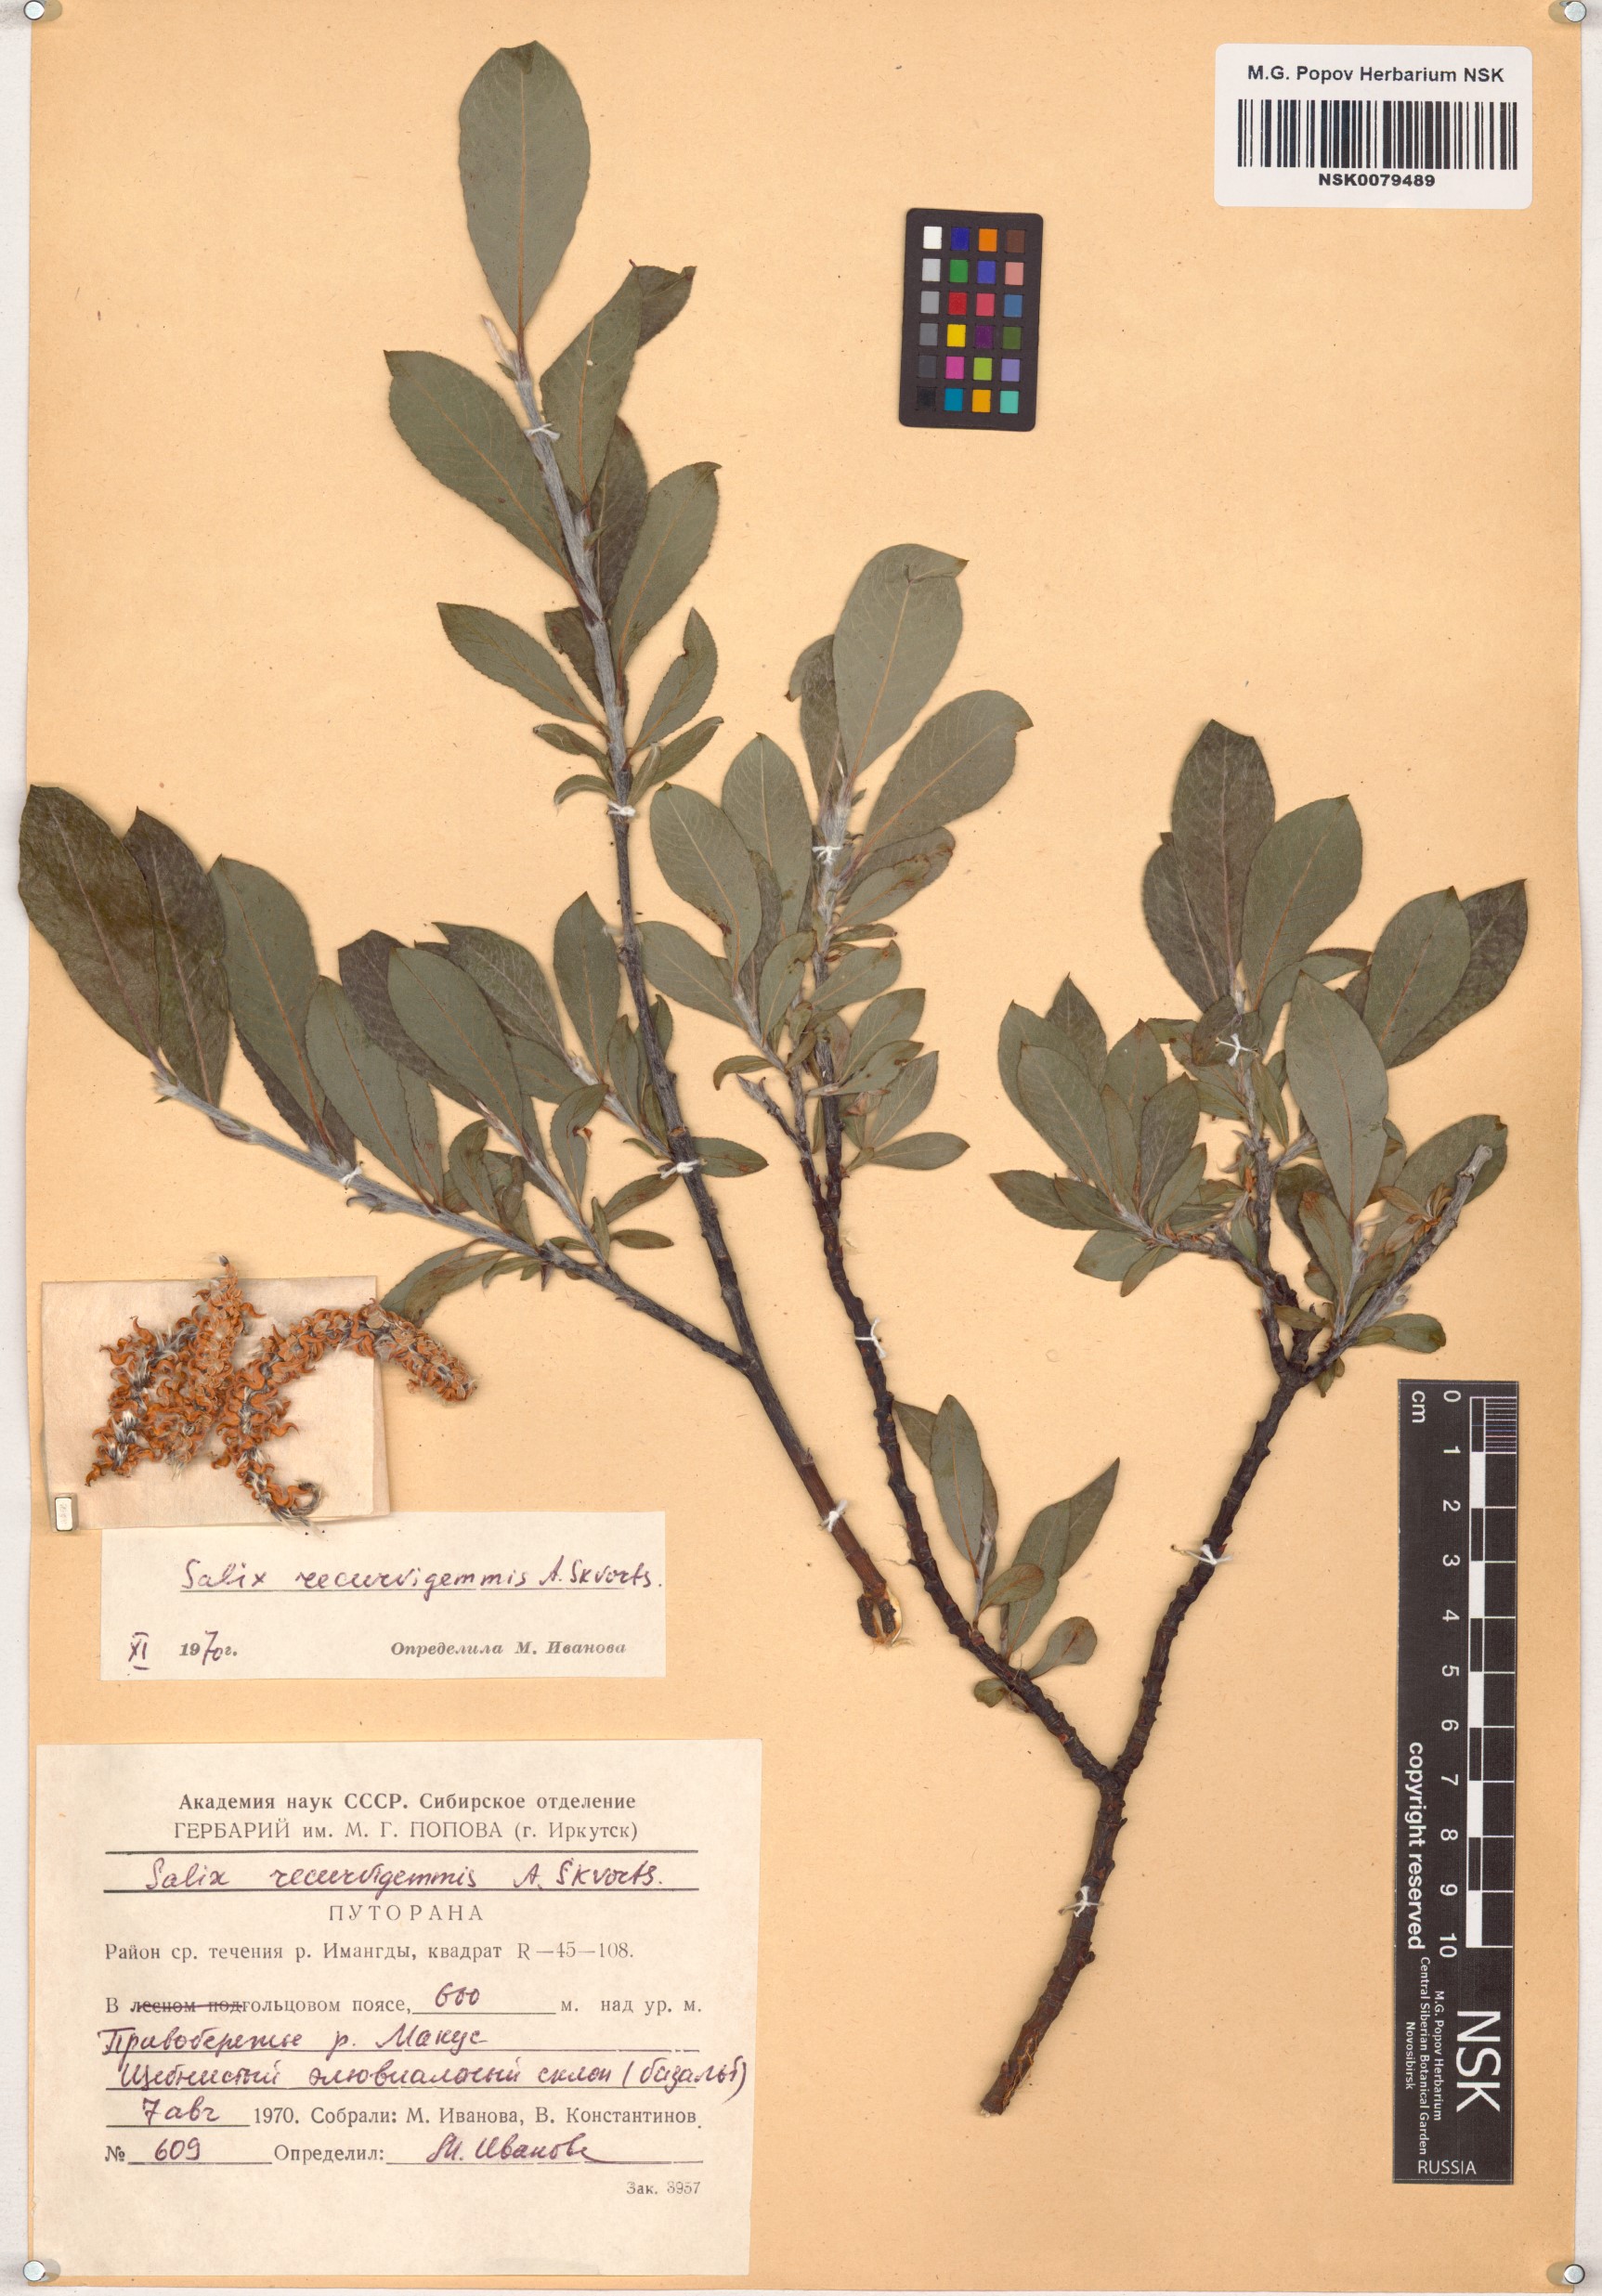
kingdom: Plantae
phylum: Tracheophyta
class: Magnoliopsida
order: Malpighiales
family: Salicaceae
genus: Salix
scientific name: Salix recurvigemmata
